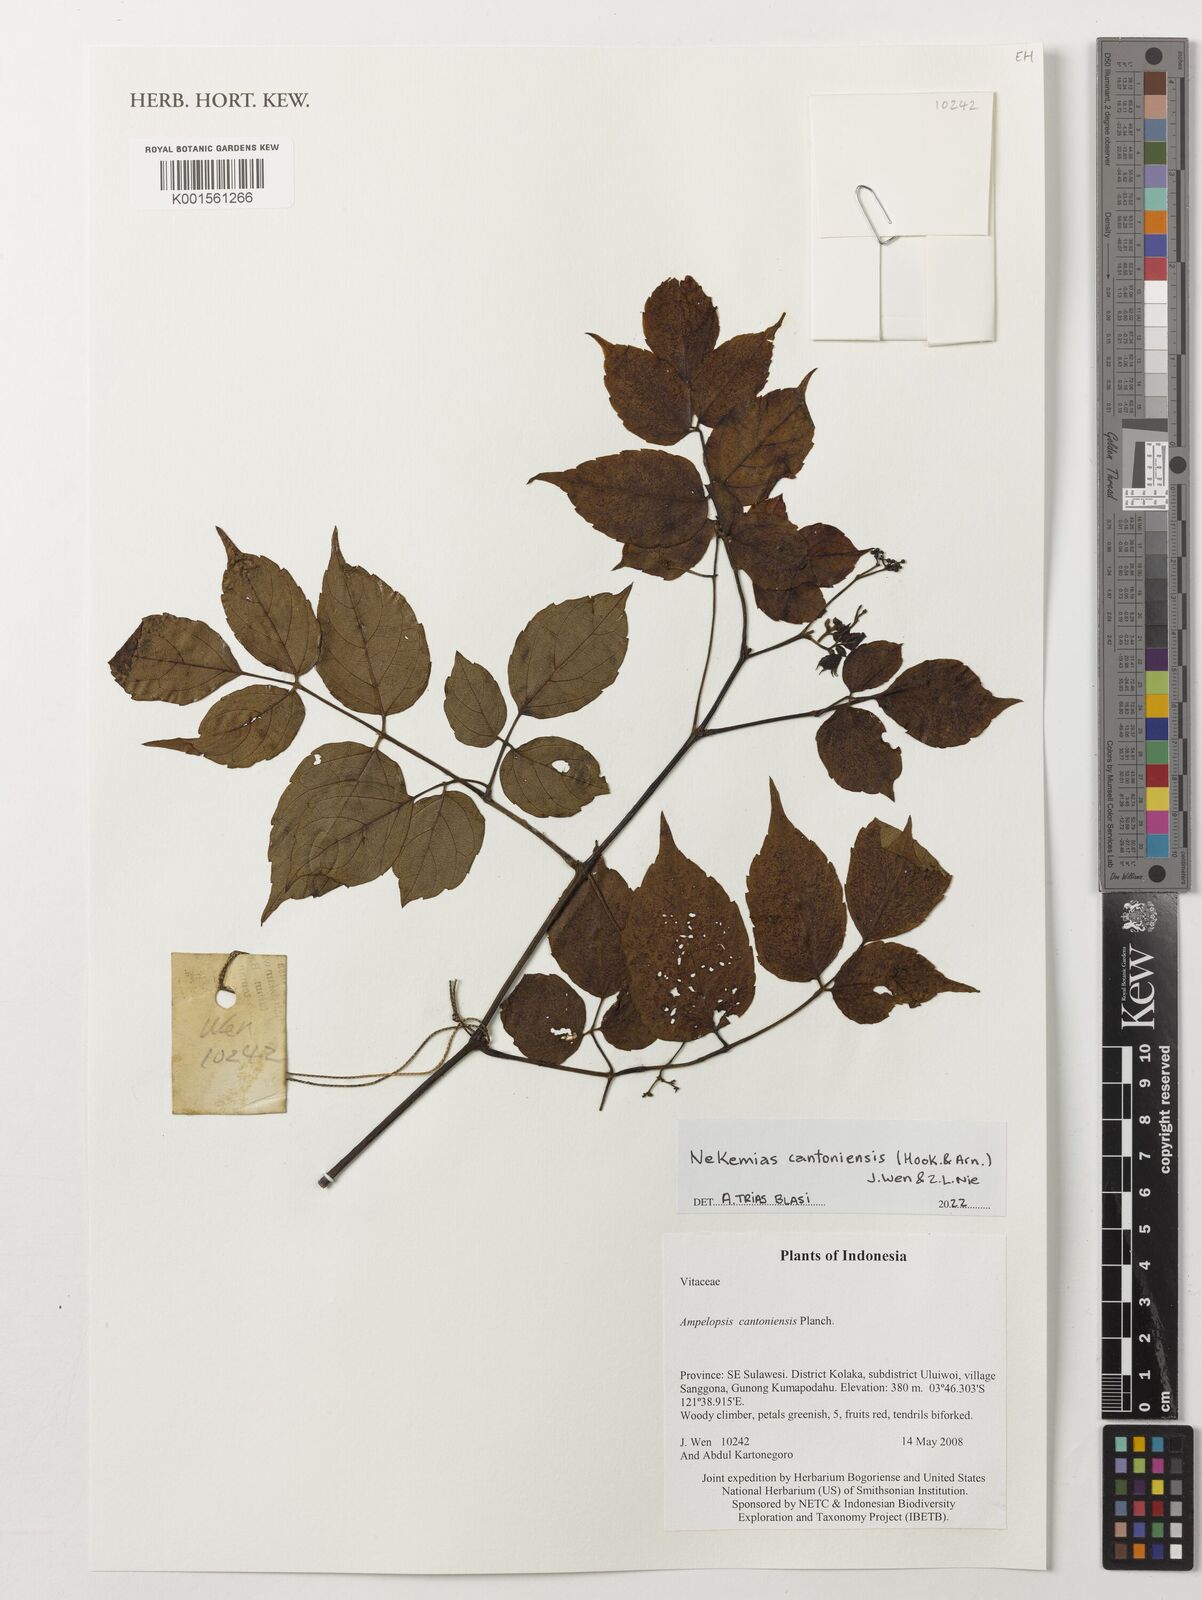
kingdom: Plantae
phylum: Tracheophyta
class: Magnoliopsida
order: Vitales
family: Vitaceae
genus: Nekemias
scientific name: Nekemias cantoniensis
